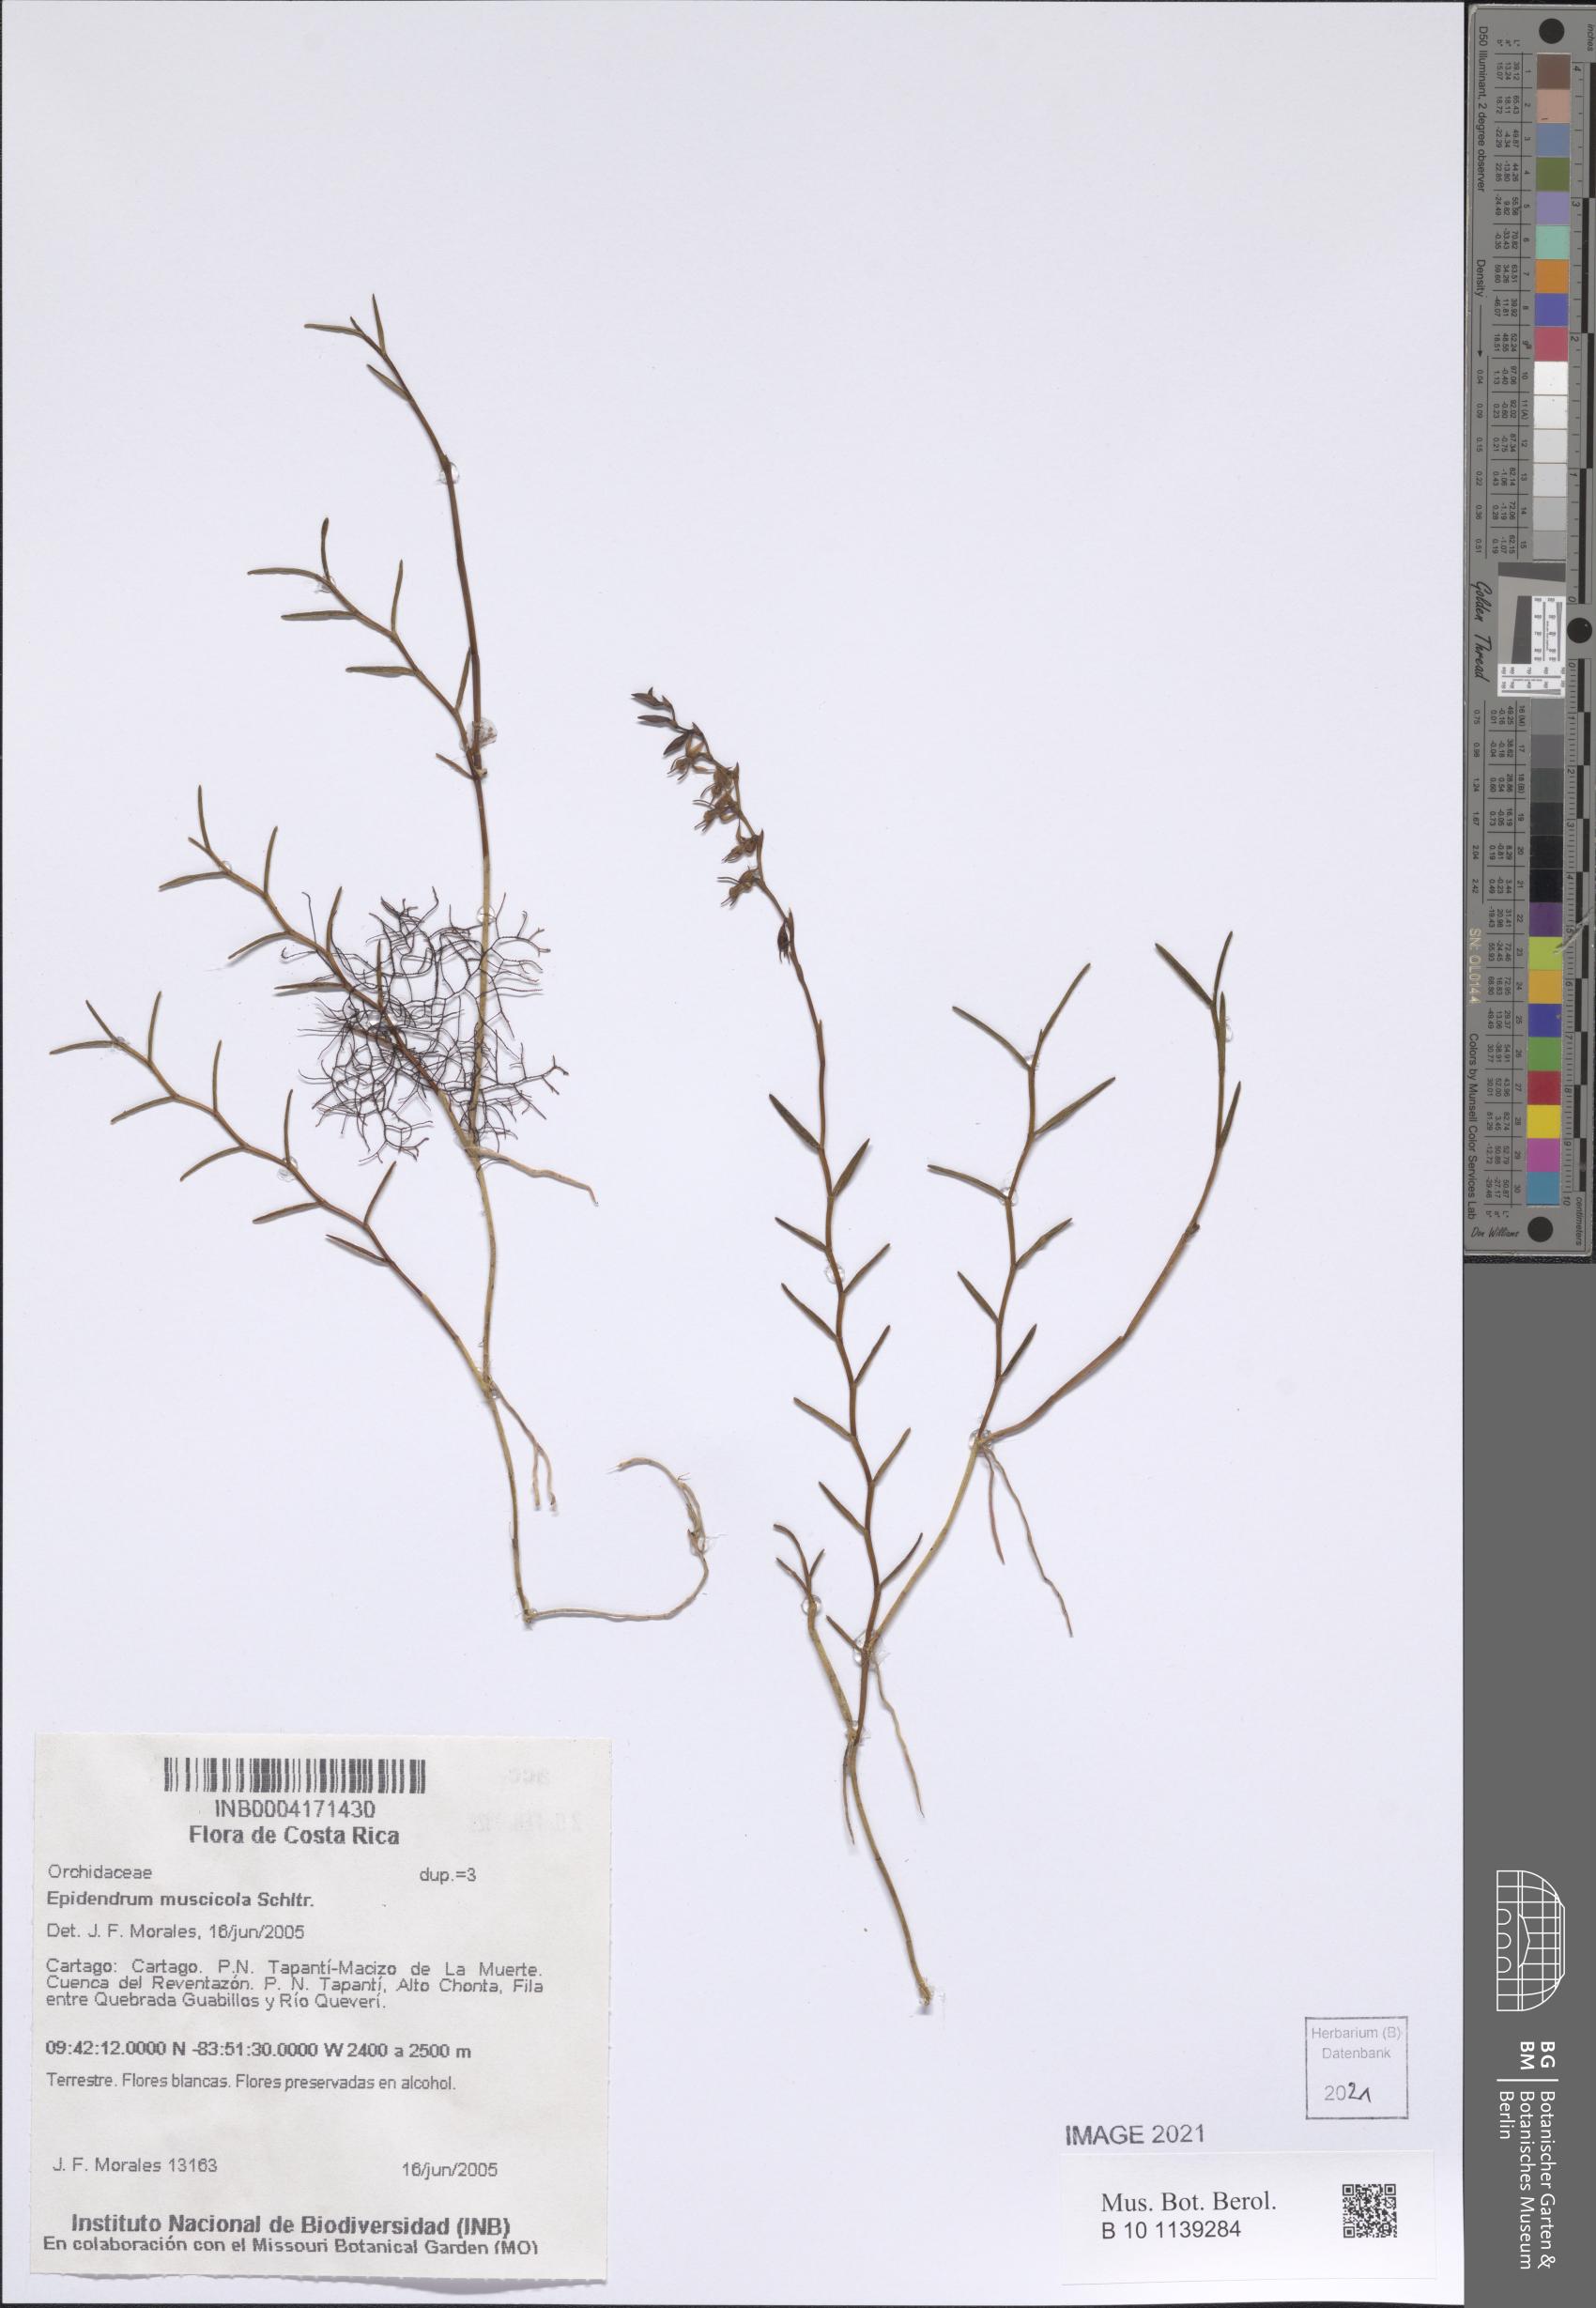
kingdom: Plantae
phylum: Tracheophyta
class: Liliopsida
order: Asparagales
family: Orchidaceae
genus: Epidendrum
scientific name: Epidendrum muscicola
